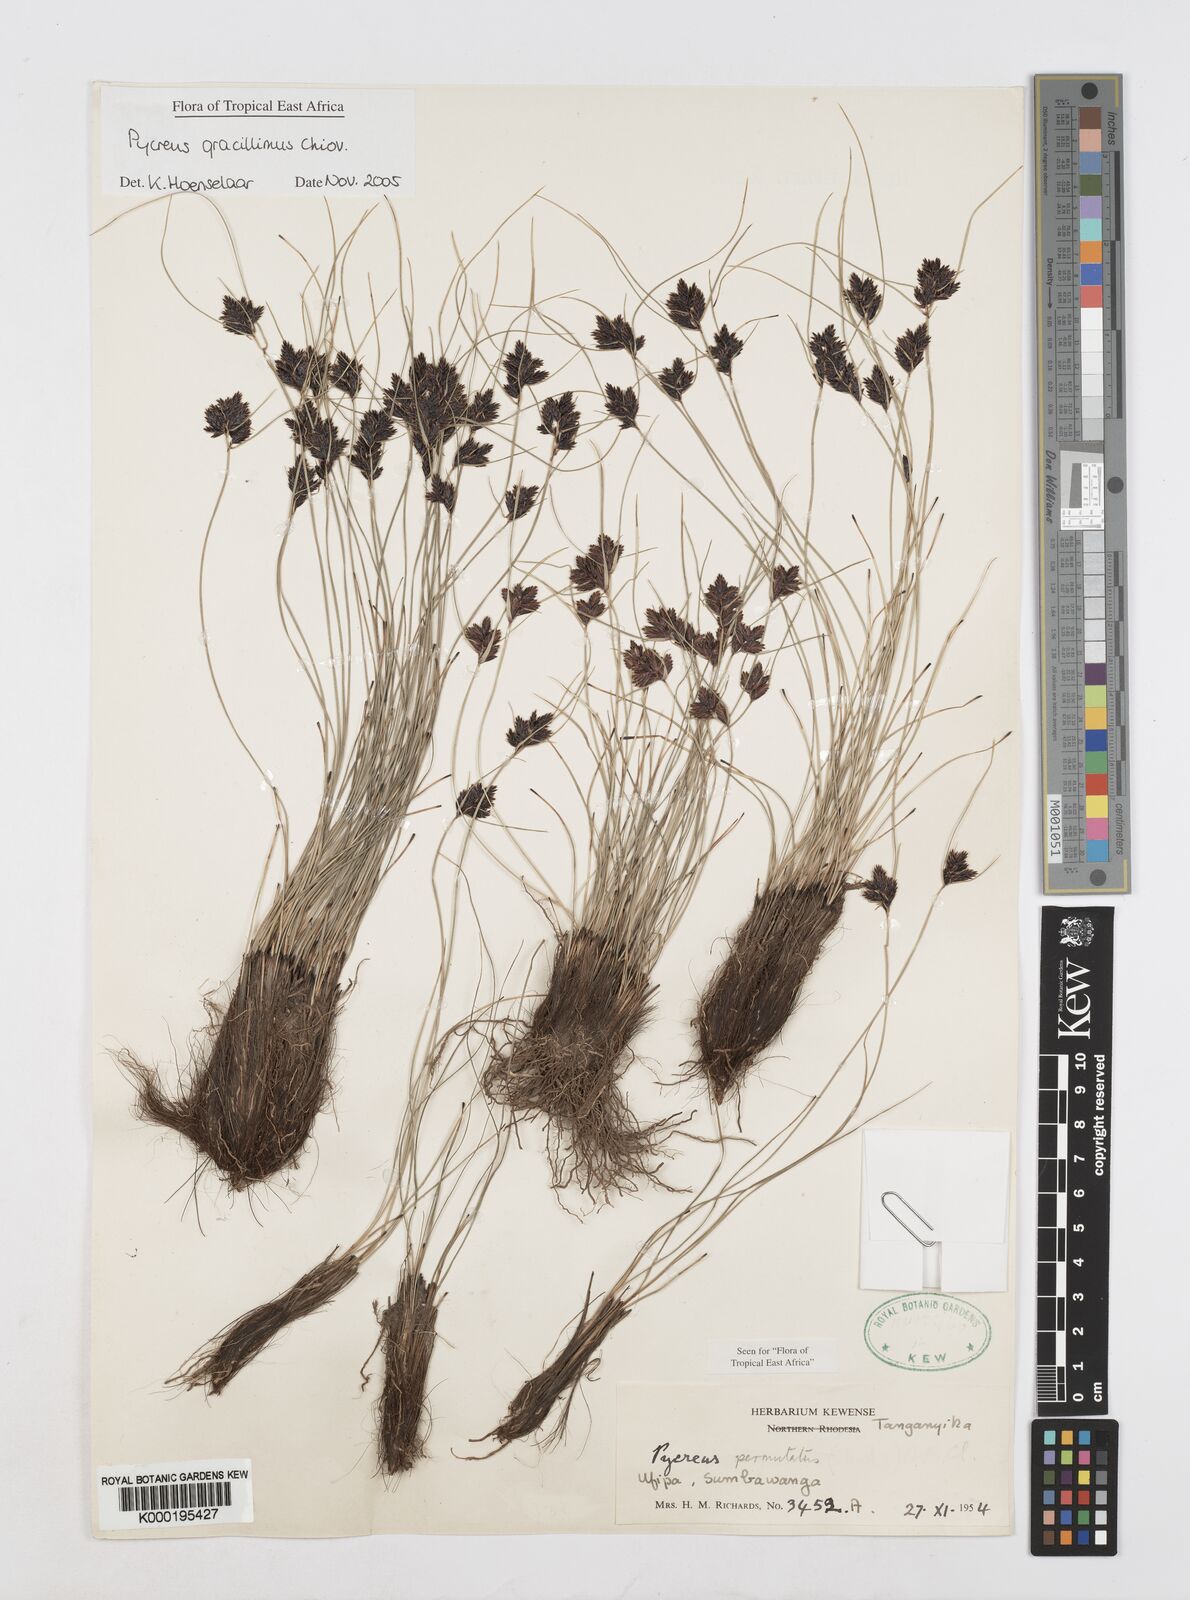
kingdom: Plantae
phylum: Tracheophyta
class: Liliopsida
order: Poales
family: Cyperaceae
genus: Cyperus
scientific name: Cyperus gracillimus
